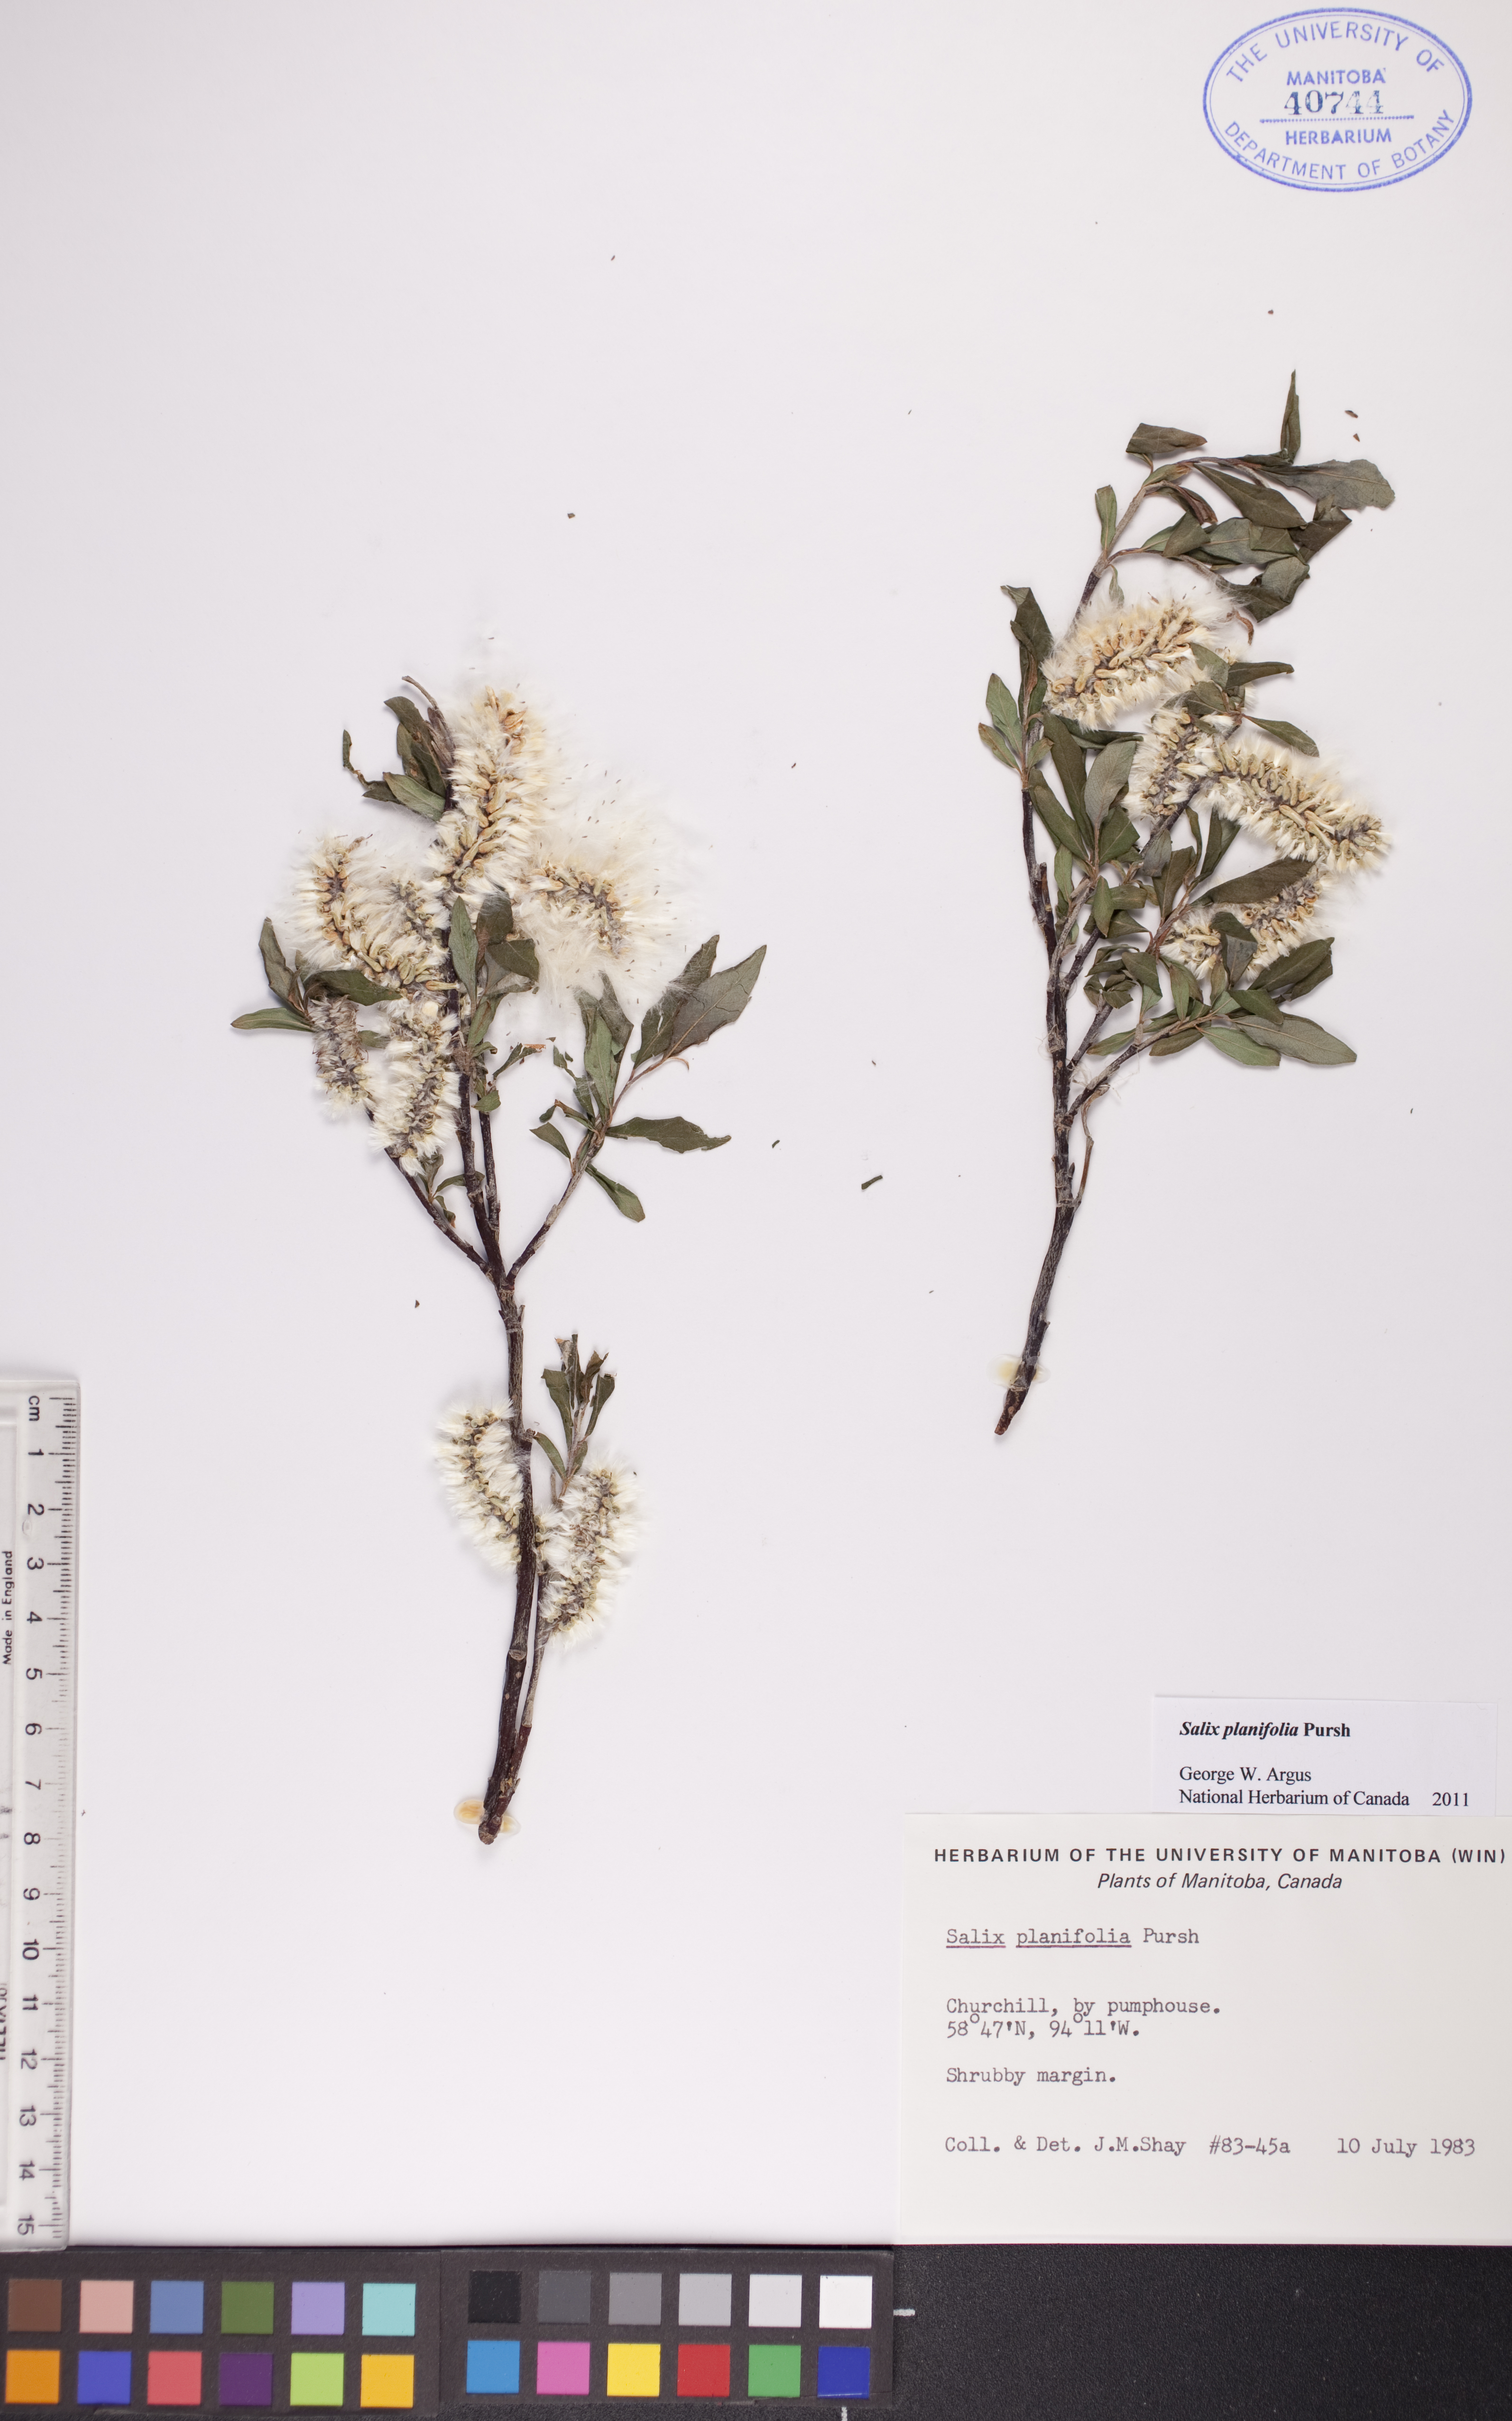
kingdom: Plantae
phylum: Tracheophyta
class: Magnoliopsida
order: Malpighiales
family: Salicaceae
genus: Salix
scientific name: Salix planifolia
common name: Mountain willow
